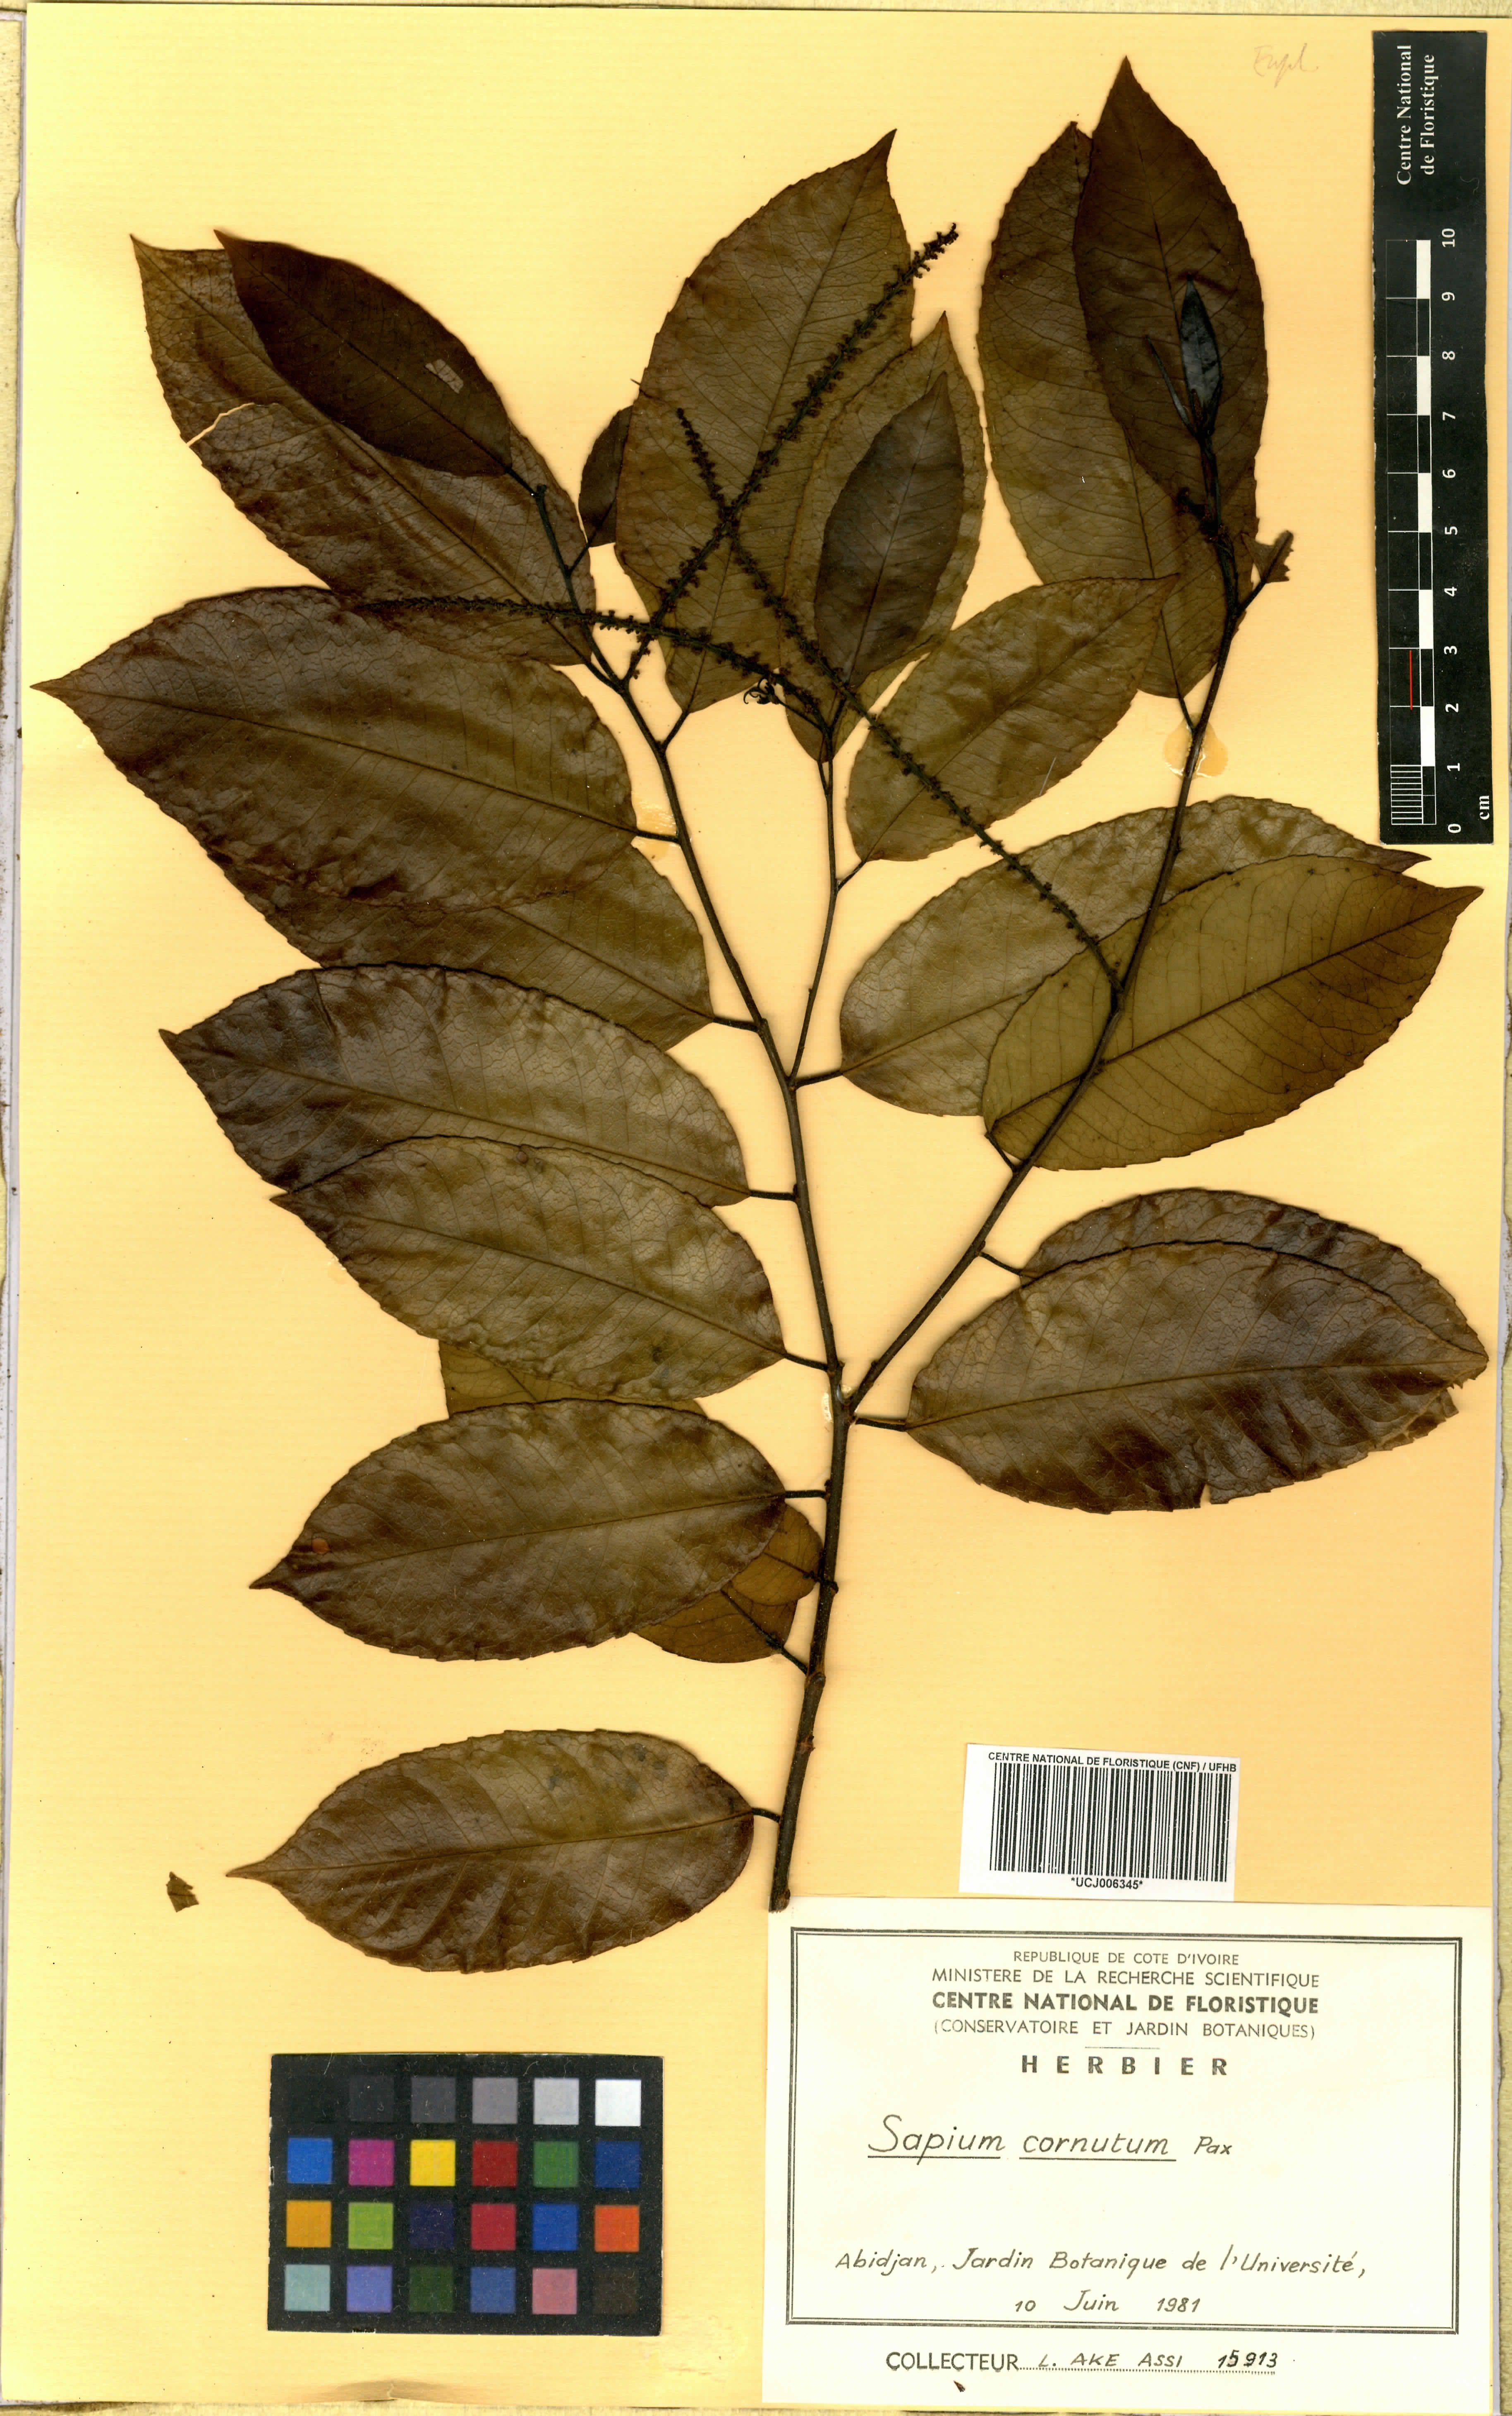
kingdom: Plantae
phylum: Tracheophyta
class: Magnoliopsida
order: Malpighiales
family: Euphorbiaceae
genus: Sclerocroton
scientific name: Sclerocroton cornutus
